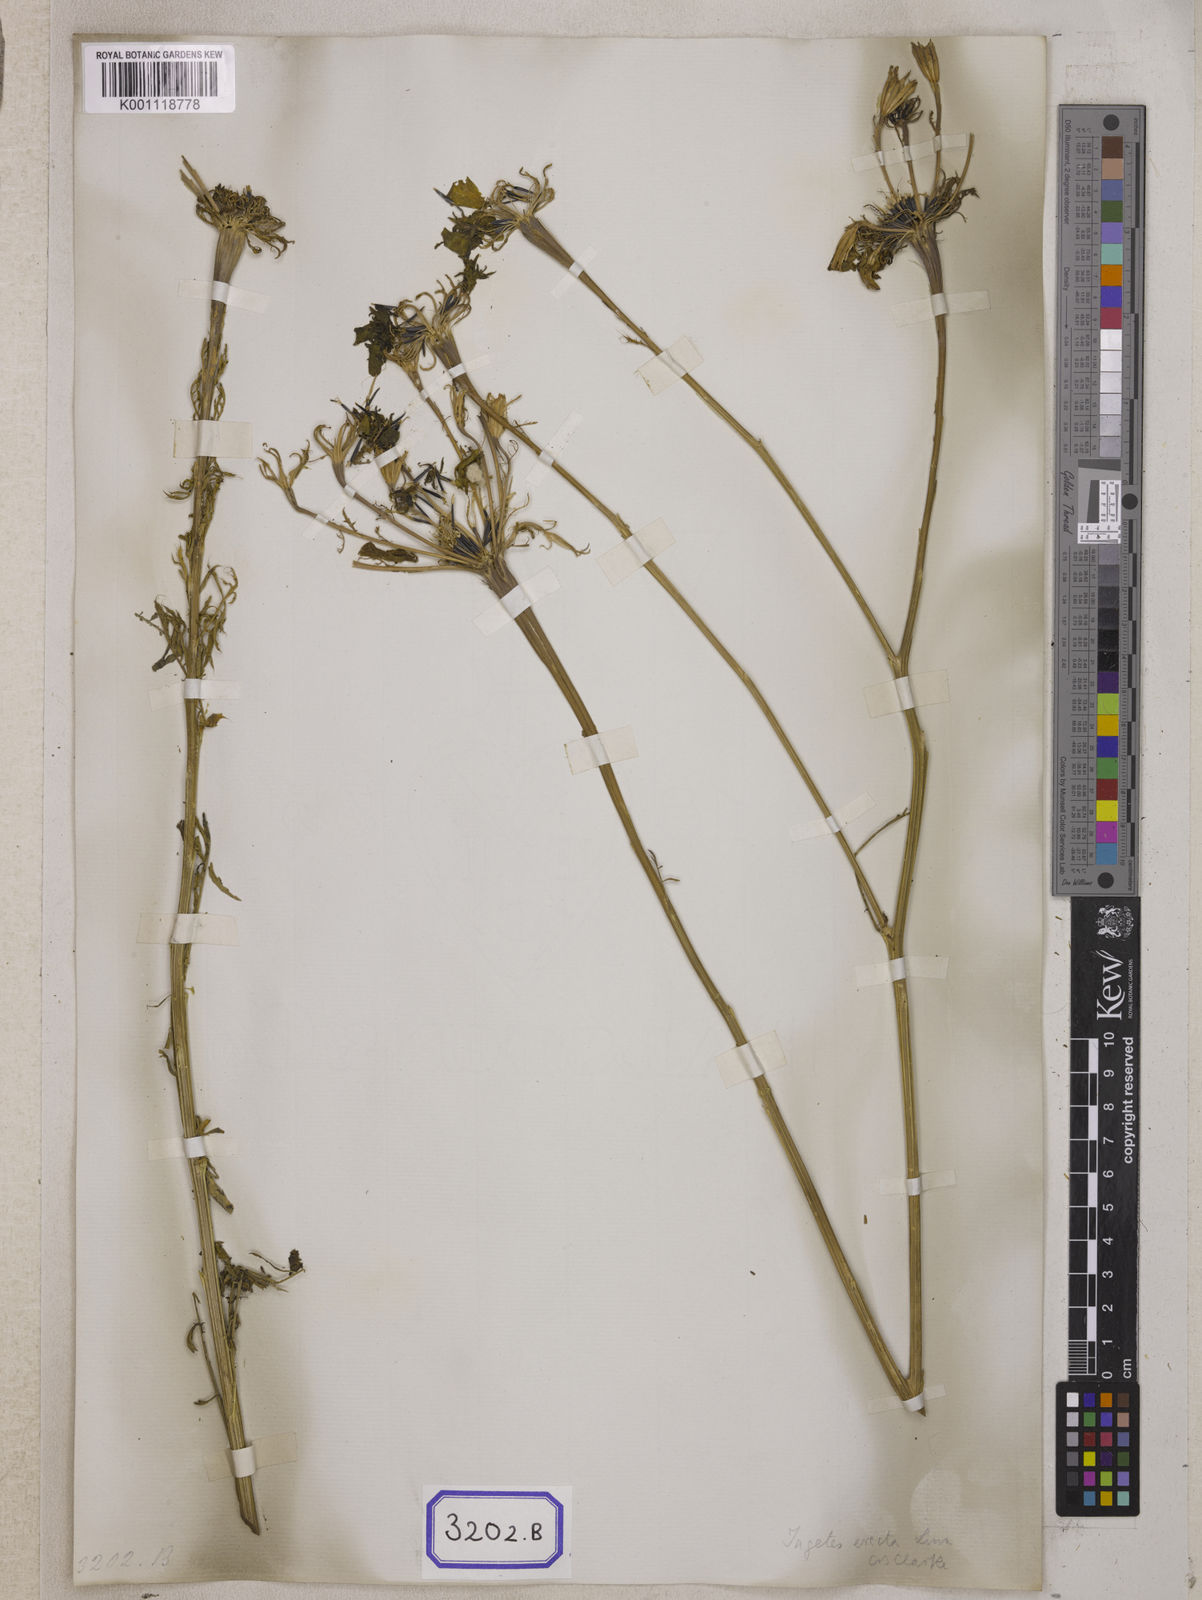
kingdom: Plantae
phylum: Tracheophyta
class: Magnoliopsida
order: Asterales
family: Asteraceae
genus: Tagetes
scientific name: Tagetes erecta
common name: African marigold
